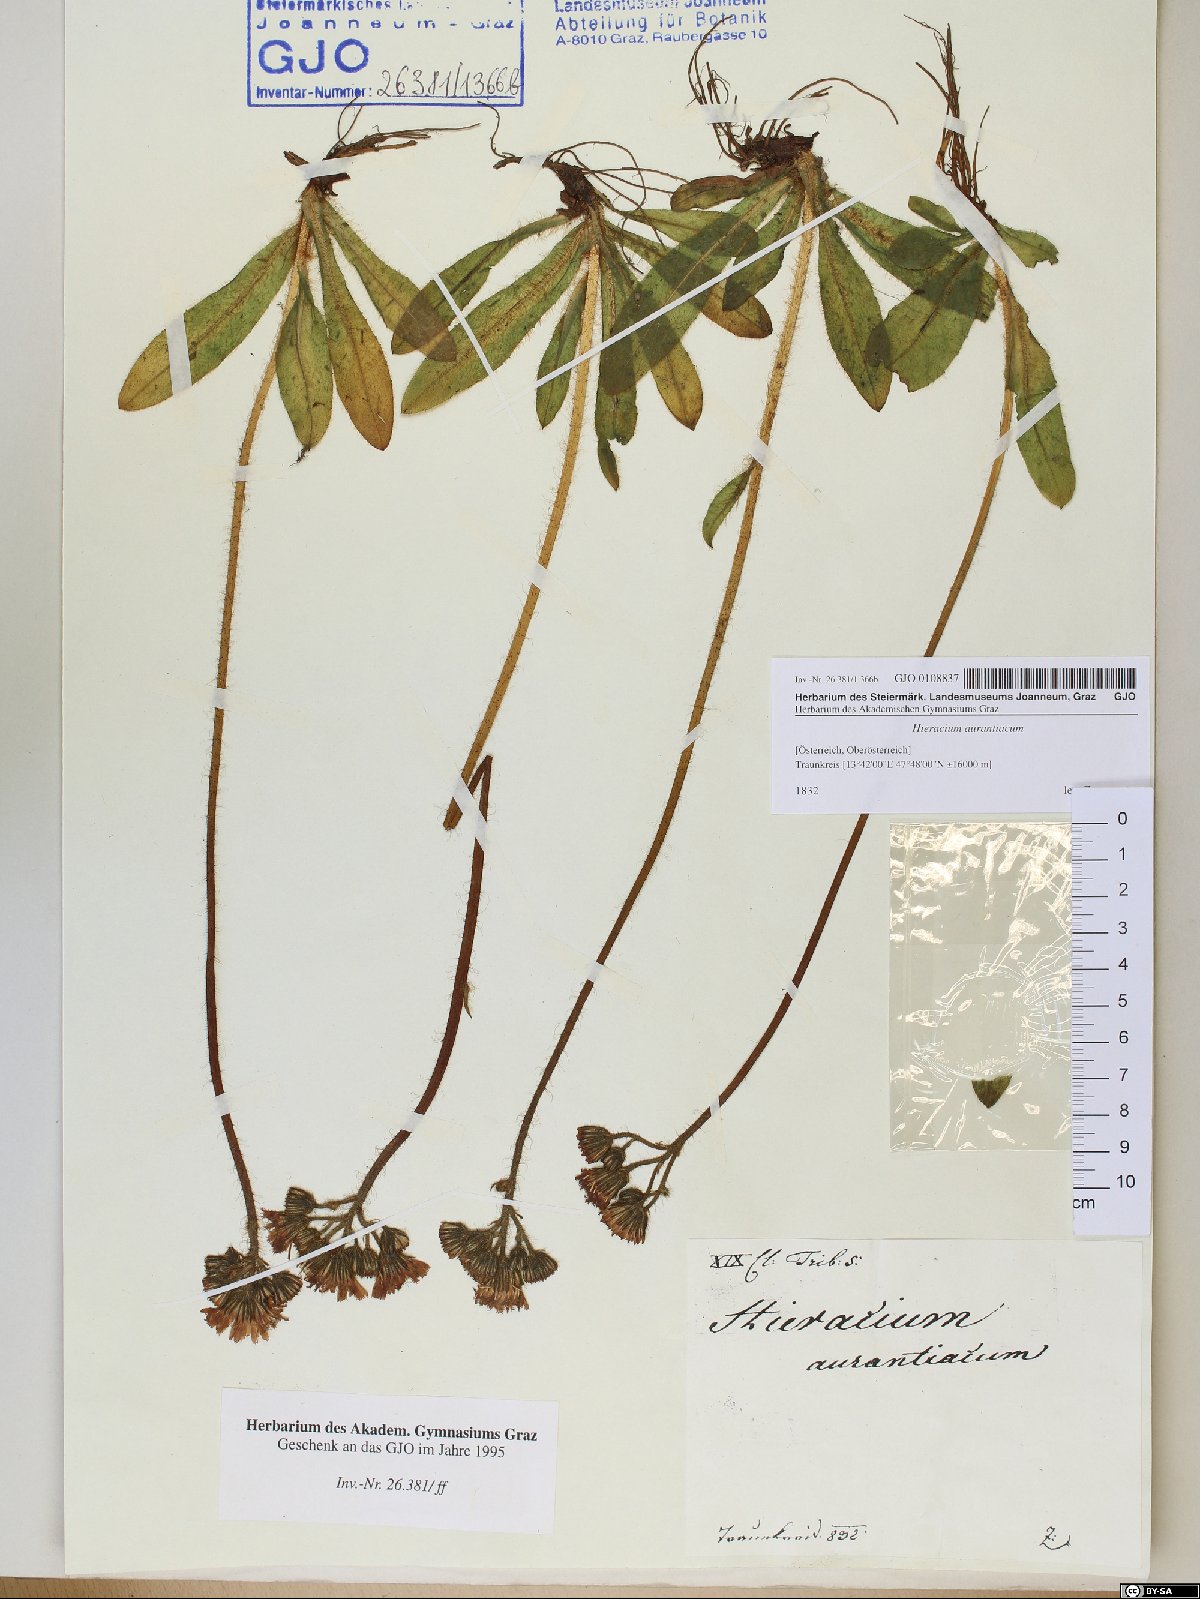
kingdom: Plantae
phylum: Tracheophyta
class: Magnoliopsida
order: Asterales
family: Asteraceae
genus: Pilosella
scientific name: Pilosella aurantiaca
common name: Fox-and-cubs
